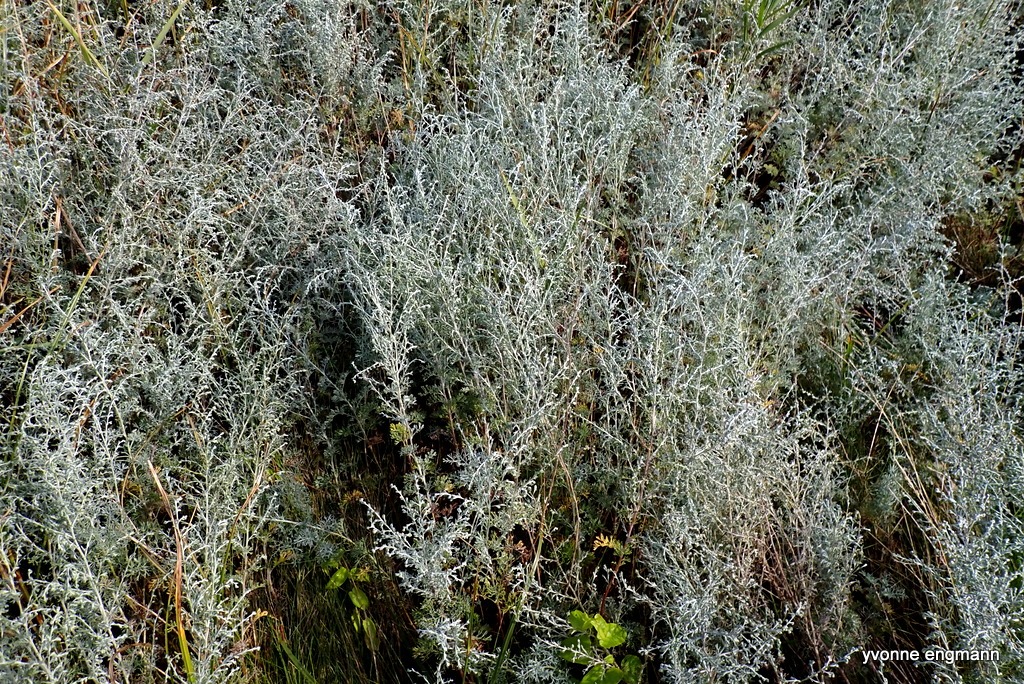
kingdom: Plantae
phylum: Tracheophyta
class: Magnoliopsida
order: Asterales
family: Asteraceae
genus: Artemisia
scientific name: Artemisia maritima
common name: Strandmalurt
